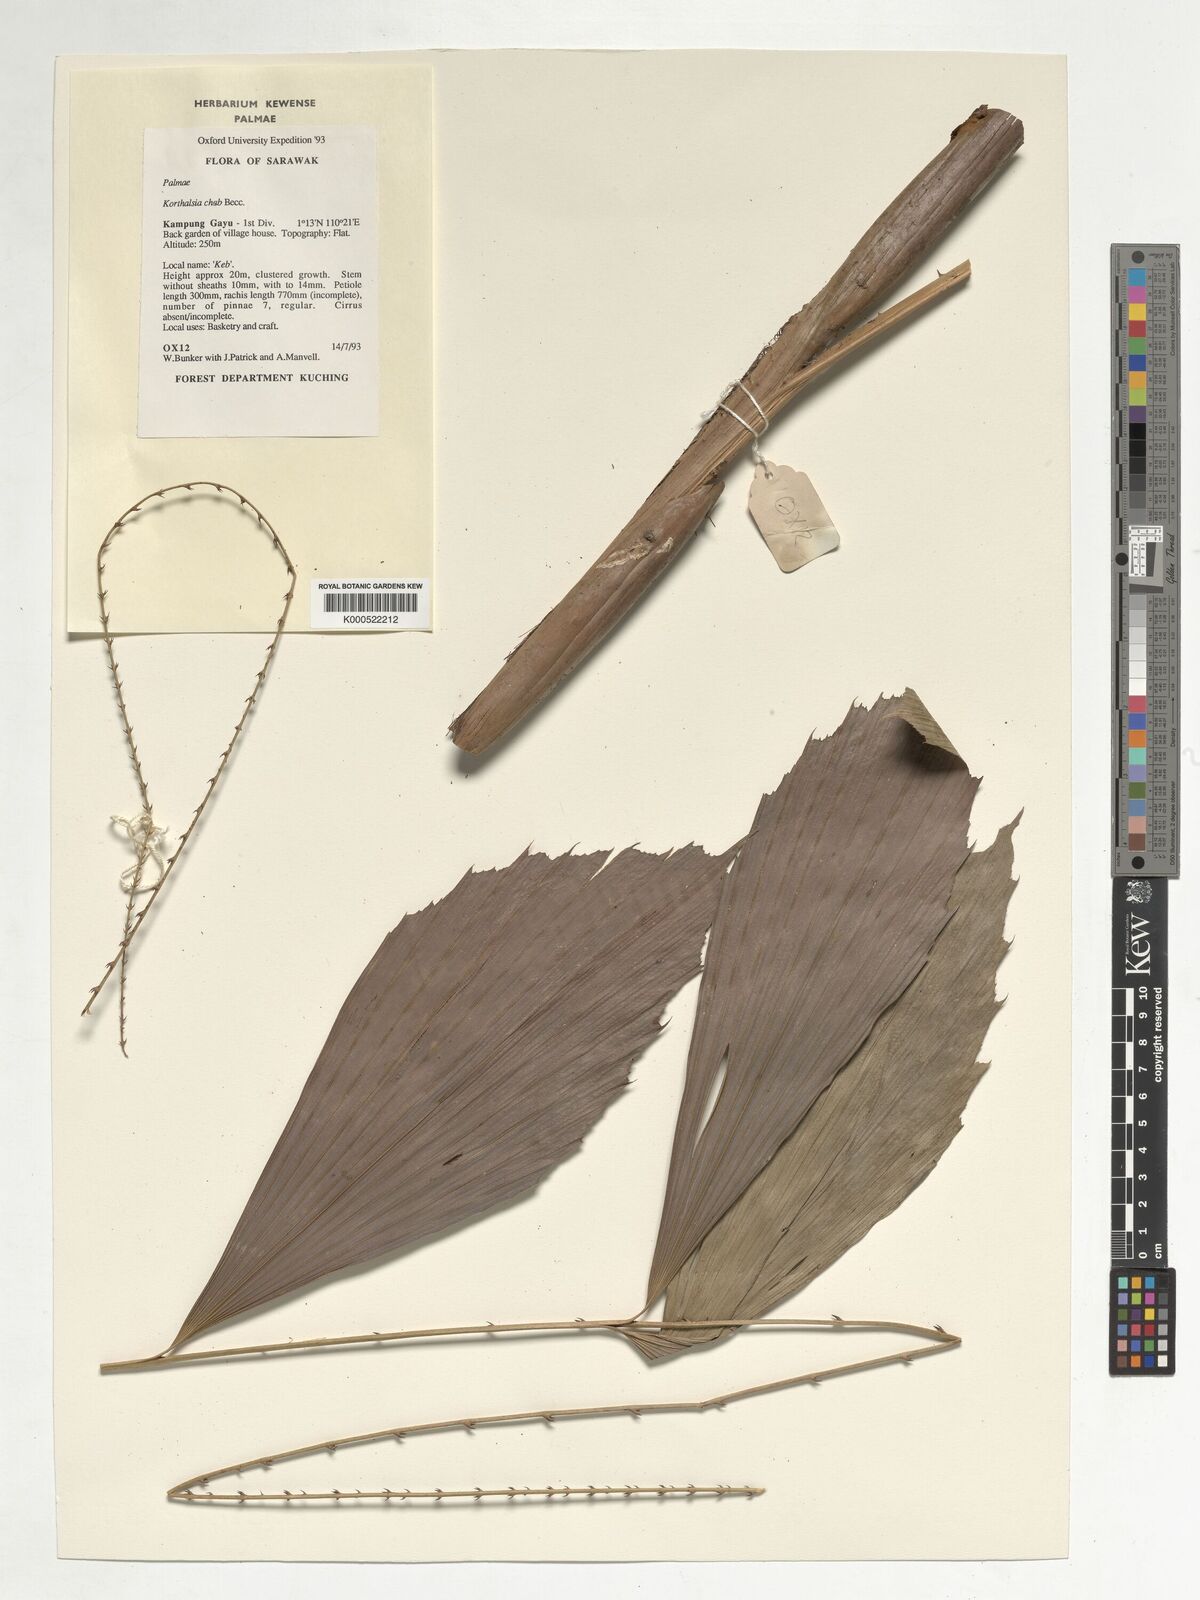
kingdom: Plantae
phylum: Tracheophyta
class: Liliopsida
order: Arecales
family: Arecaceae
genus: Korthalsia
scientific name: Korthalsia cheb
